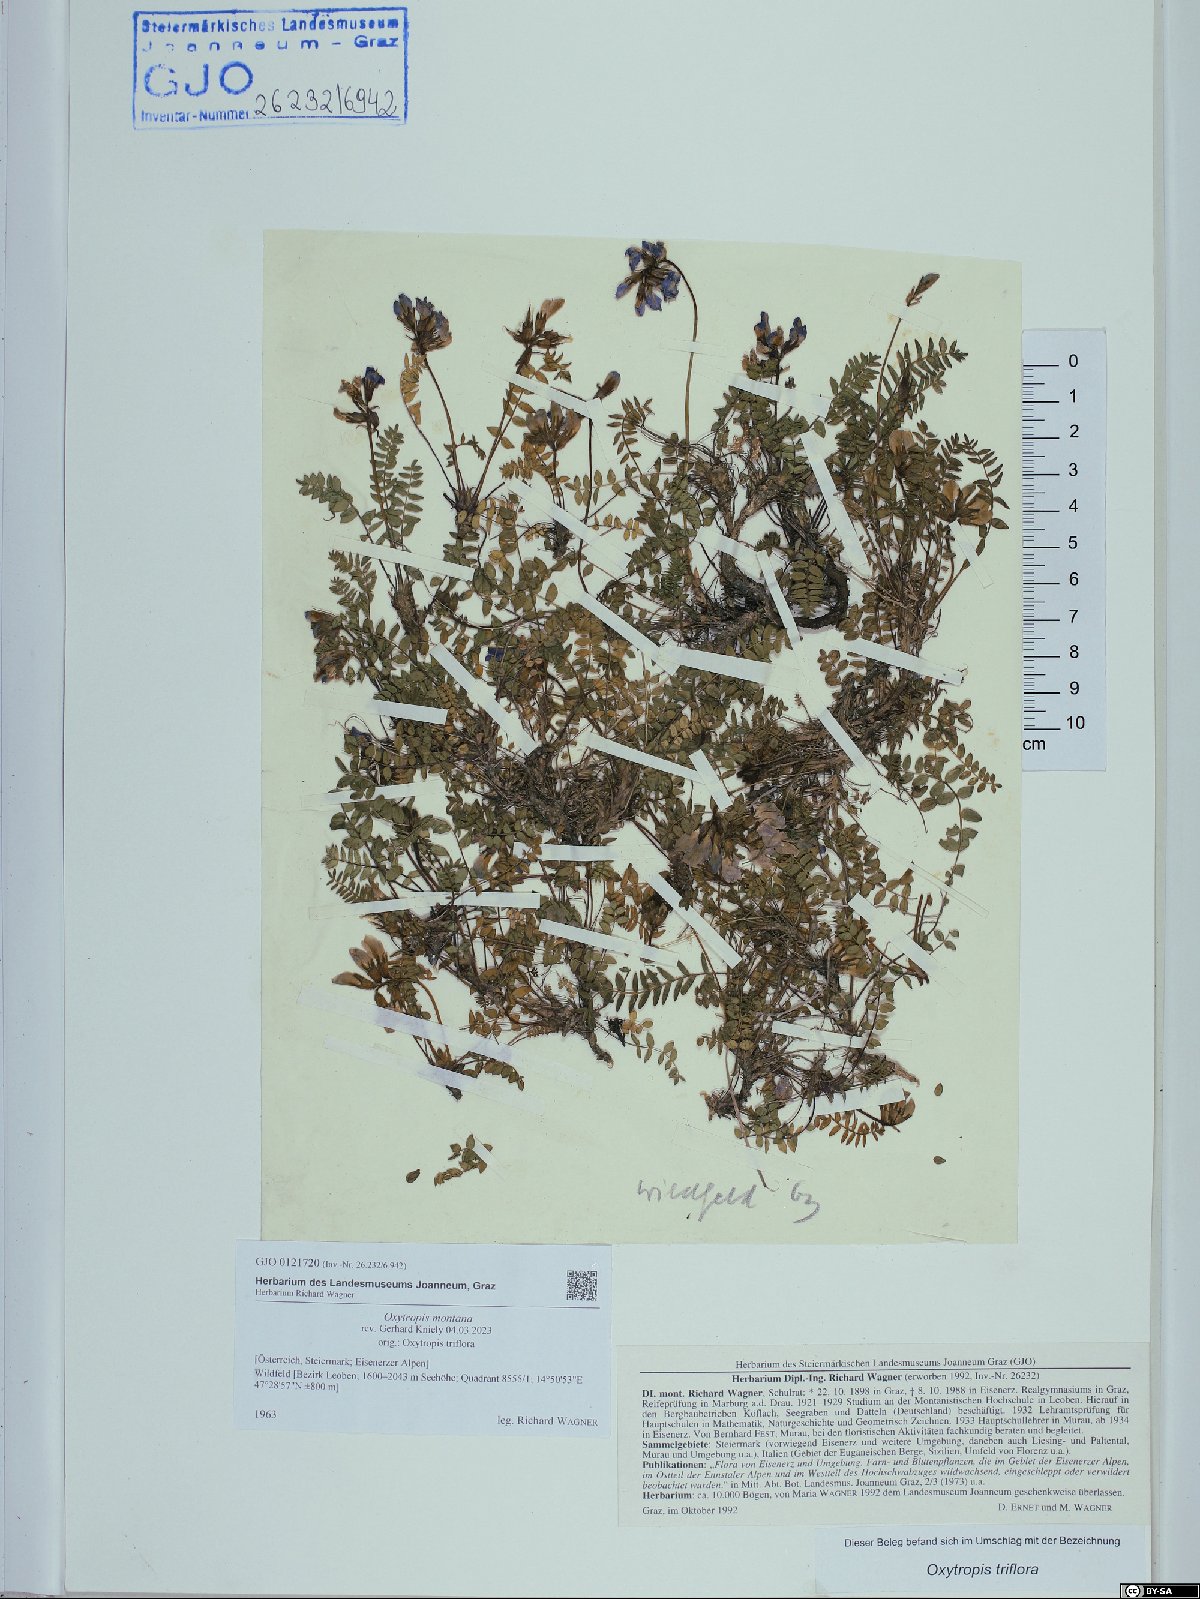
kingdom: Plantae
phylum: Tracheophyta
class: Magnoliopsida
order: Fabales
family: Fabaceae
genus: Oxytropis
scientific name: Oxytropis montana
